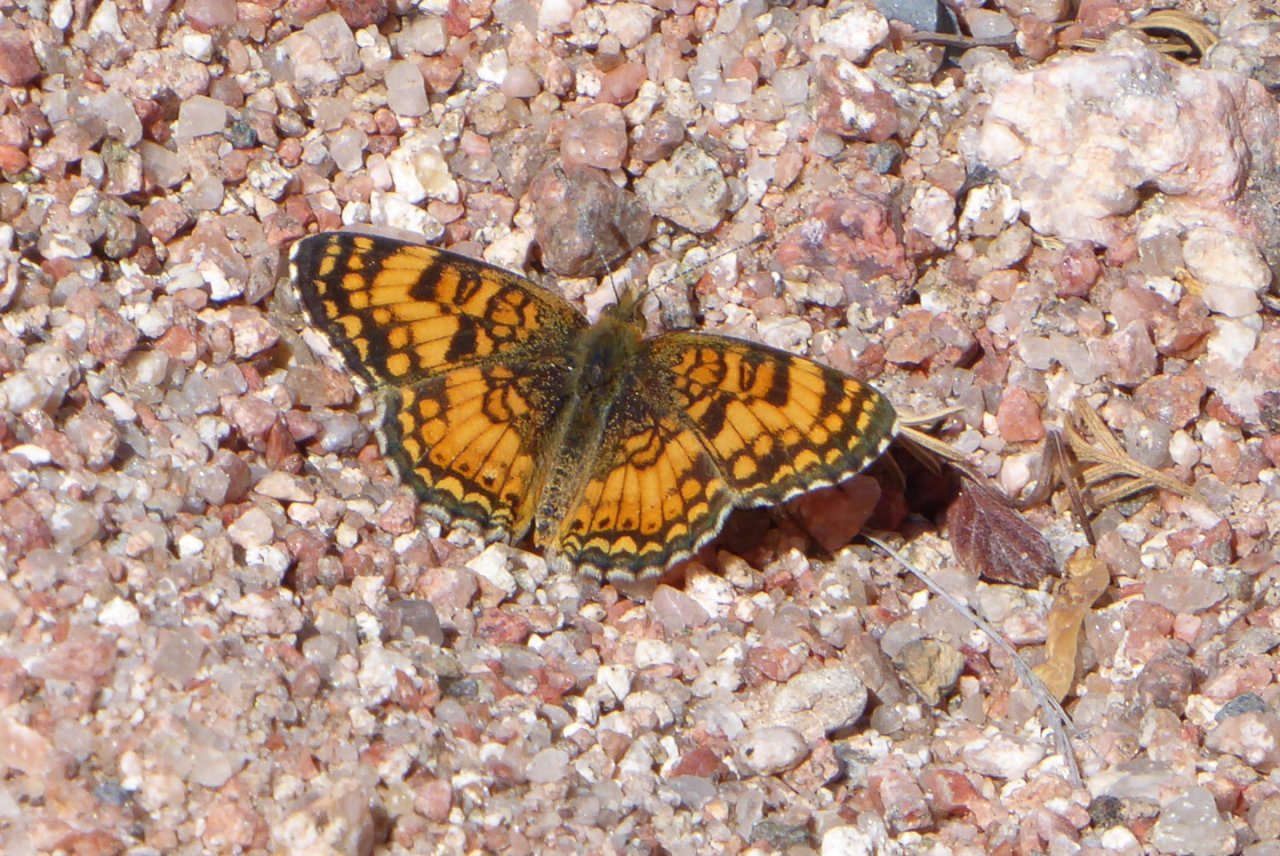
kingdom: Animalia
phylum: Arthropoda
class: Insecta
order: Lepidoptera
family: Nymphalidae
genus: Eresia
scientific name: Eresia aveyrona
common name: Mylitta Crescent
